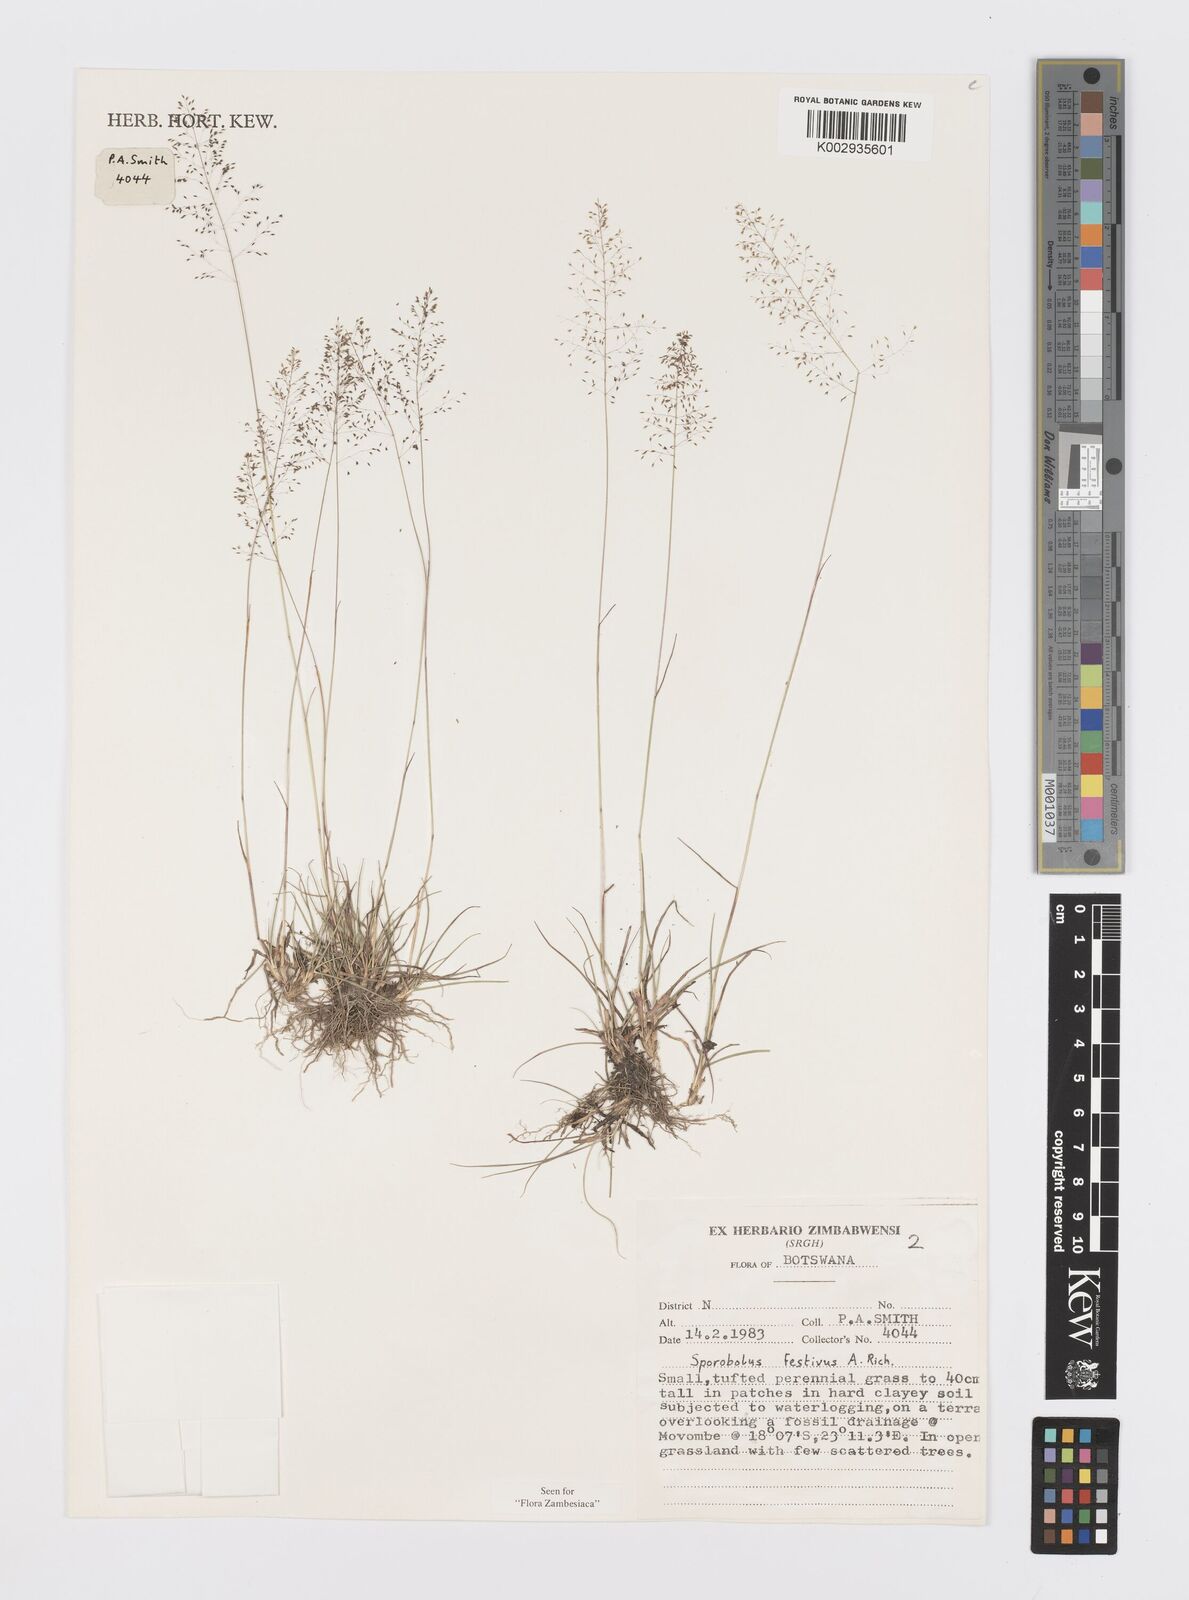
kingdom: Plantae
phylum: Tracheophyta
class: Liliopsida
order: Poales
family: Poaceae
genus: Sporobolus
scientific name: Sporobolus festivus
